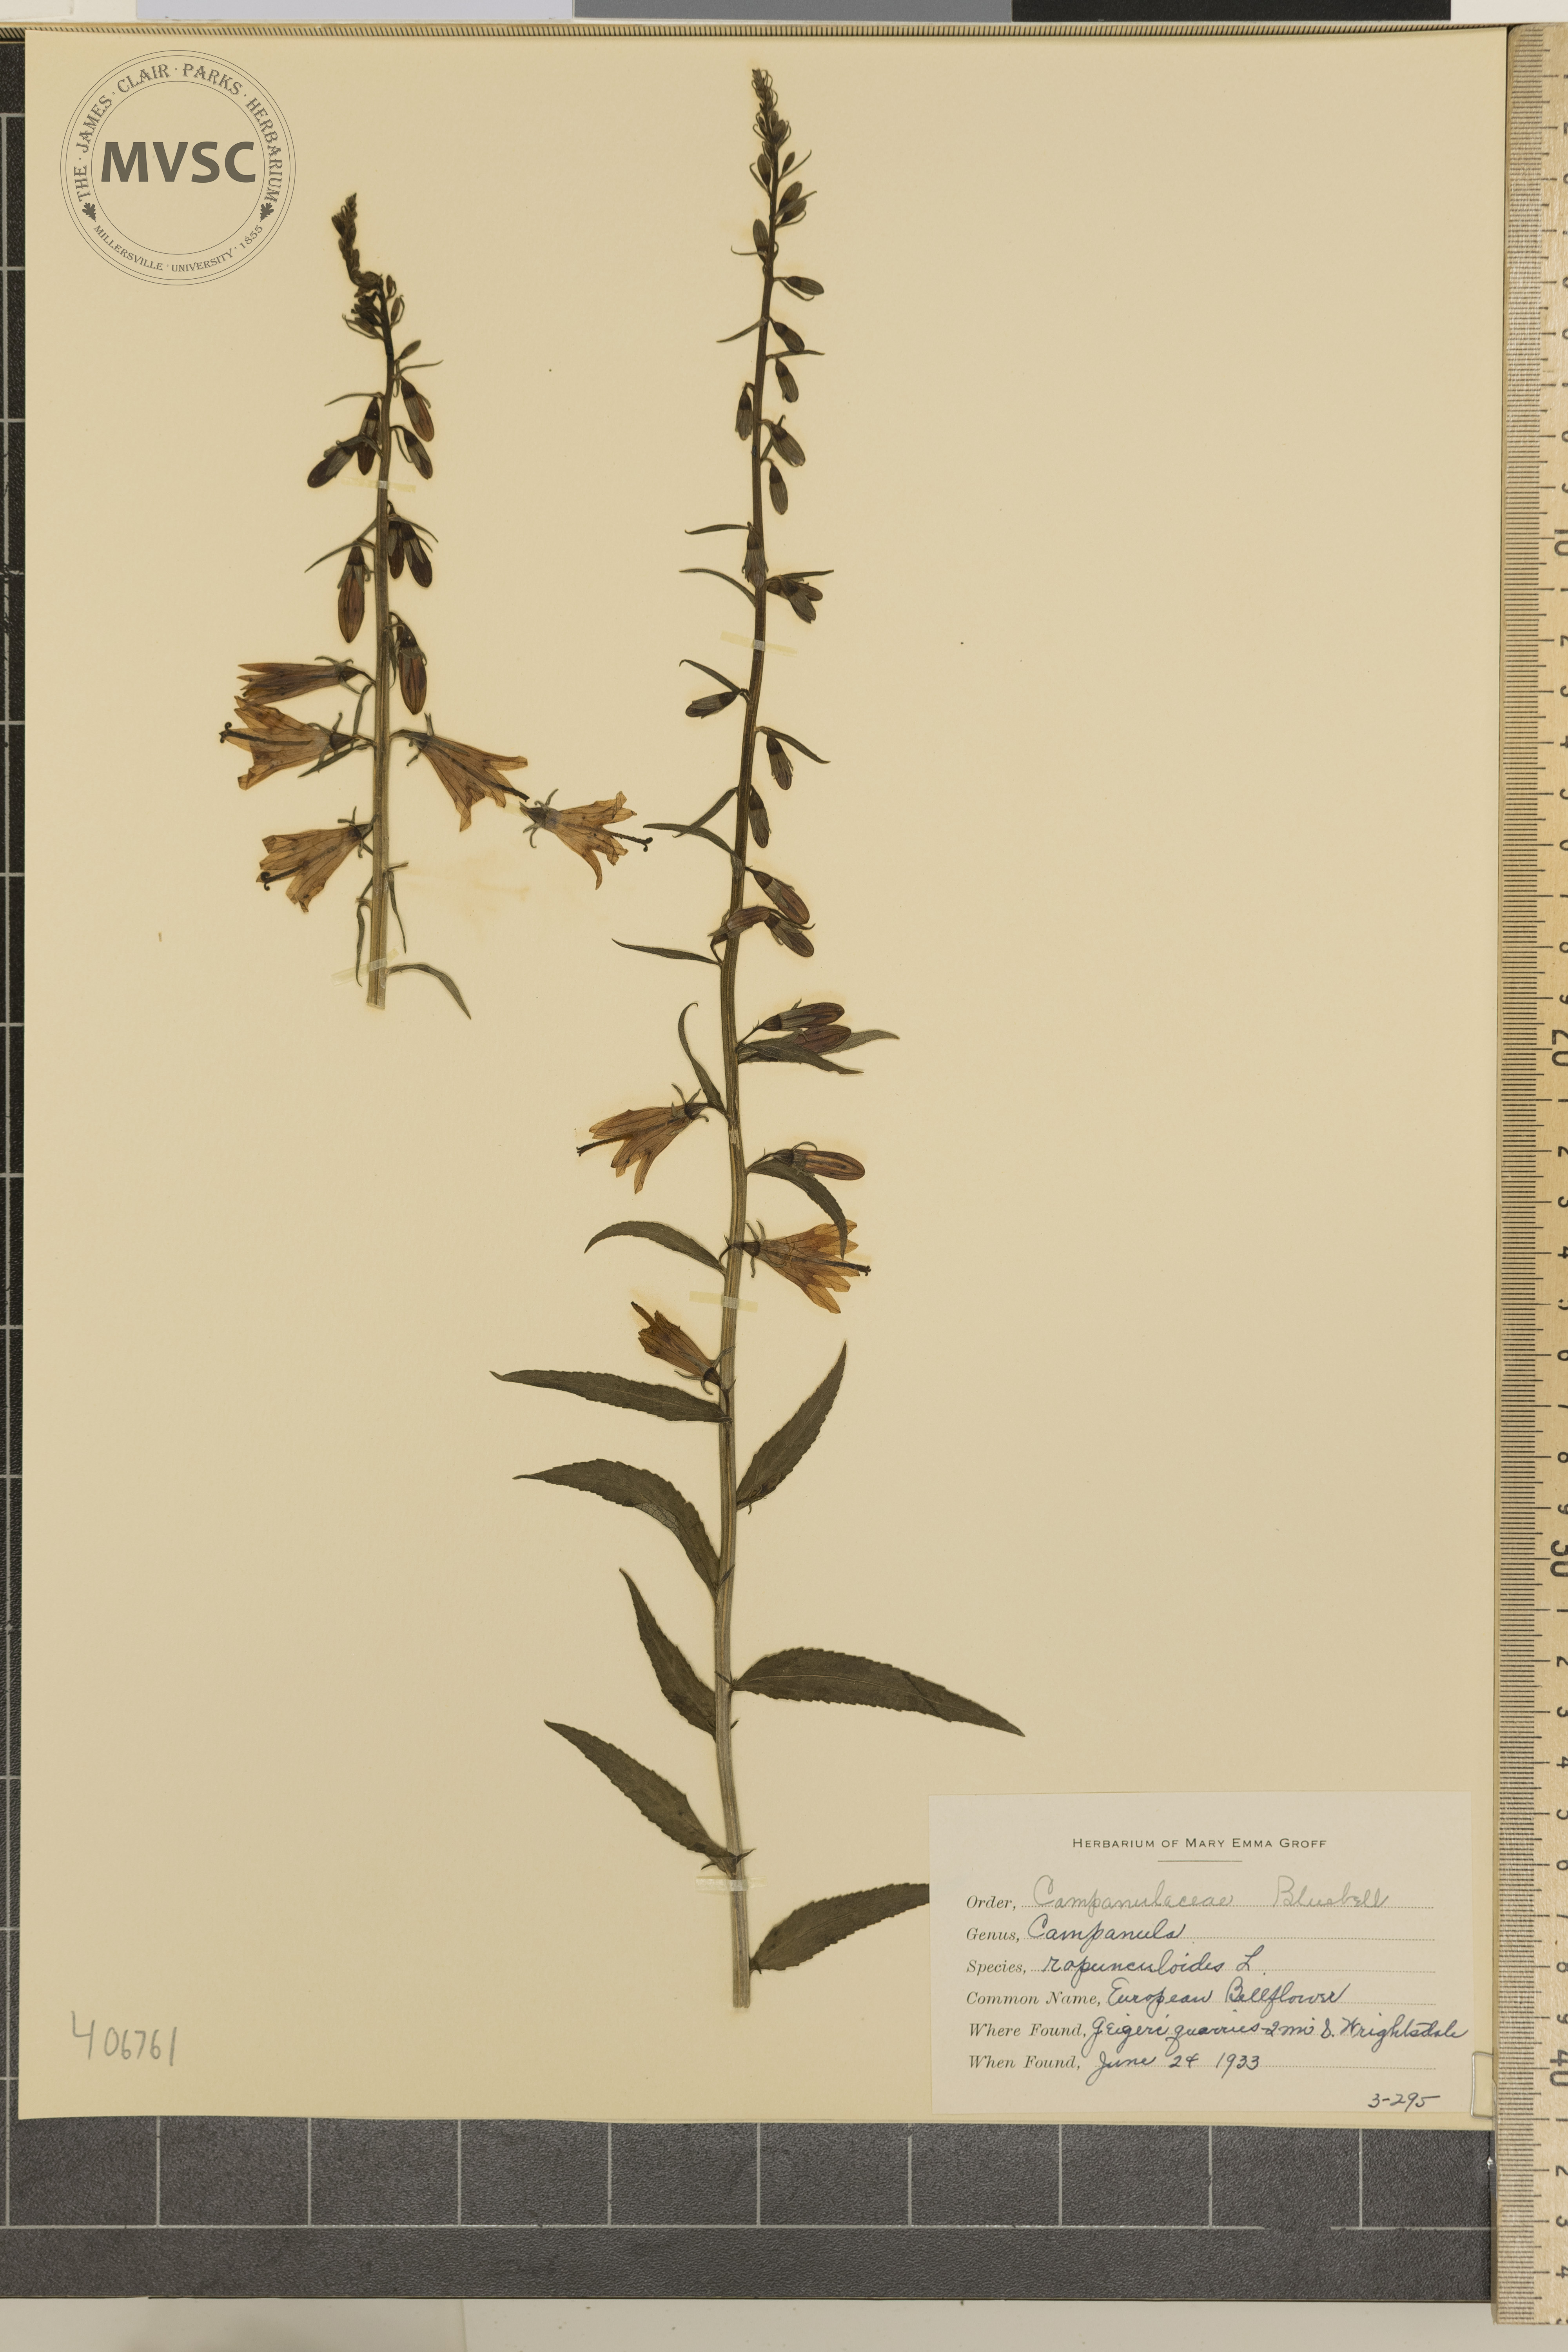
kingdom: Plantae
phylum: Tracheophyta
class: Magnoliopsida
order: Asterales
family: Campanulaceae
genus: Campanula
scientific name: Campanula rapunculoides
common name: European Bellflower
